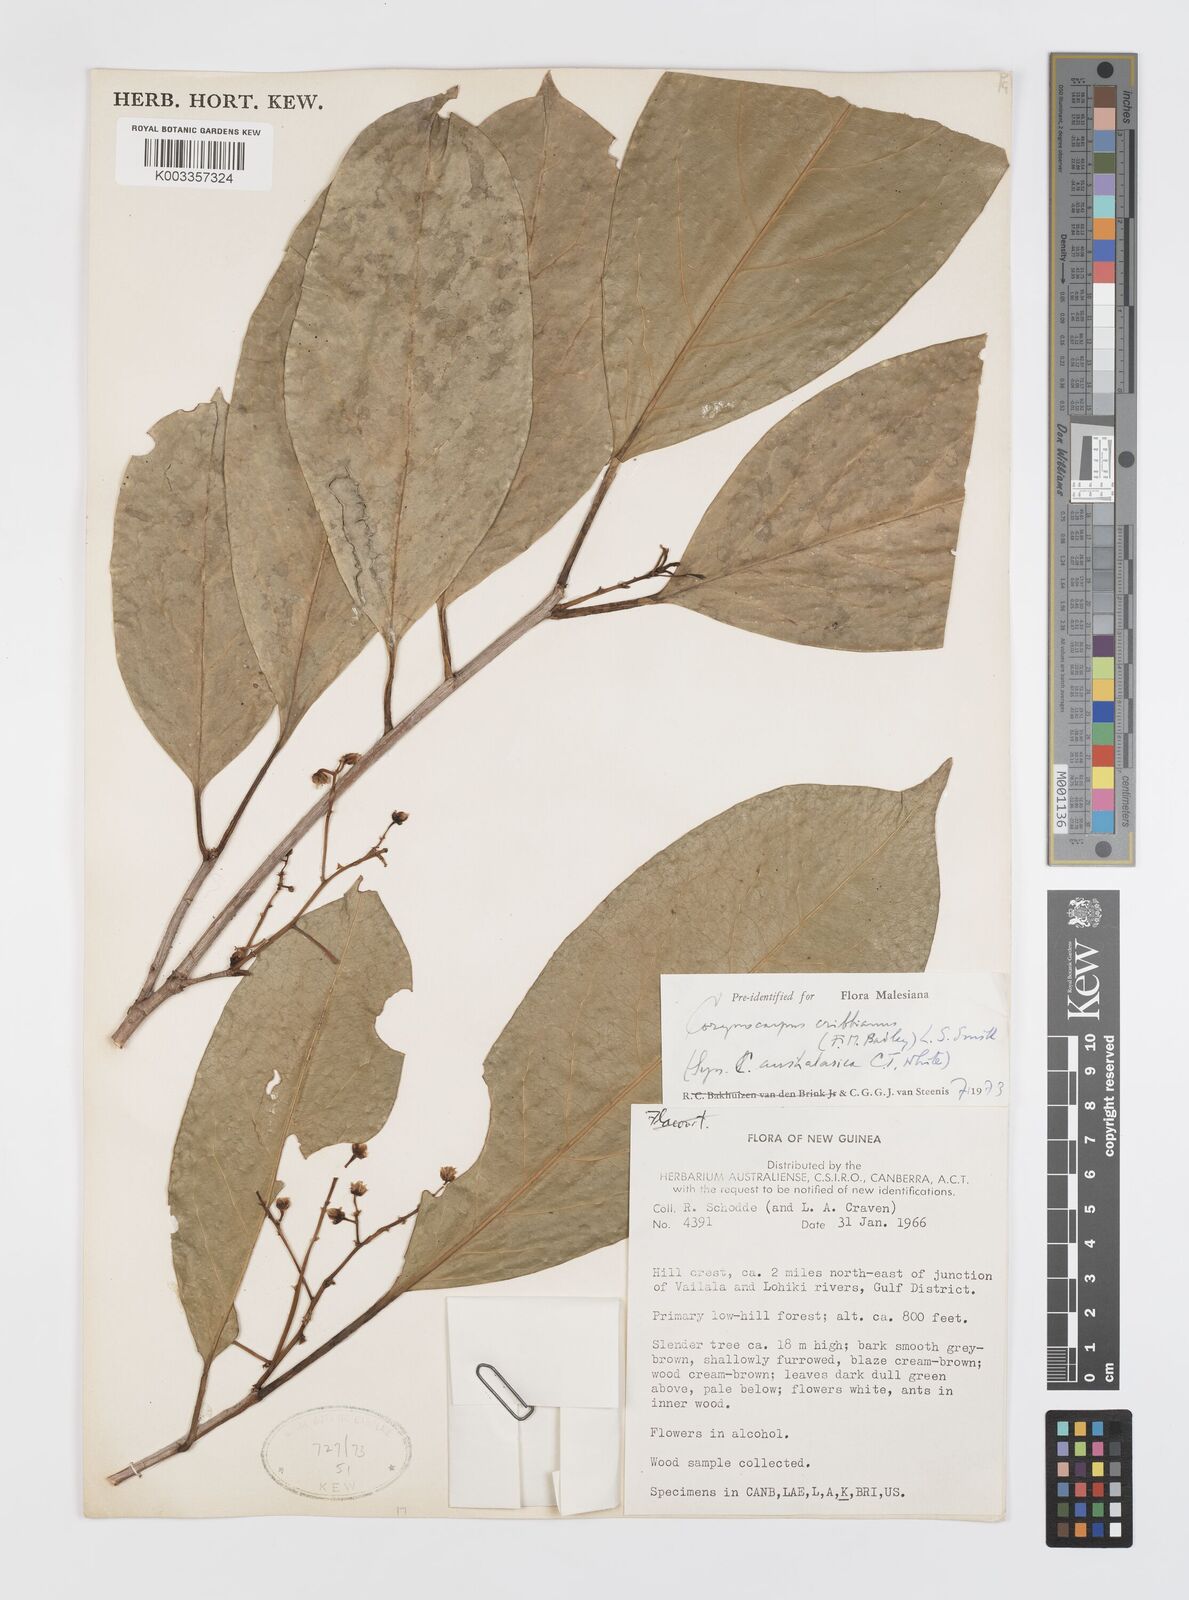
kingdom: Plantae
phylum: Tracheophyta
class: Magnoliopsida
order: Cucurbitales
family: Corynocarpaceae
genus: Corynocarpus
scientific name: Corynocarpus cribbianus
